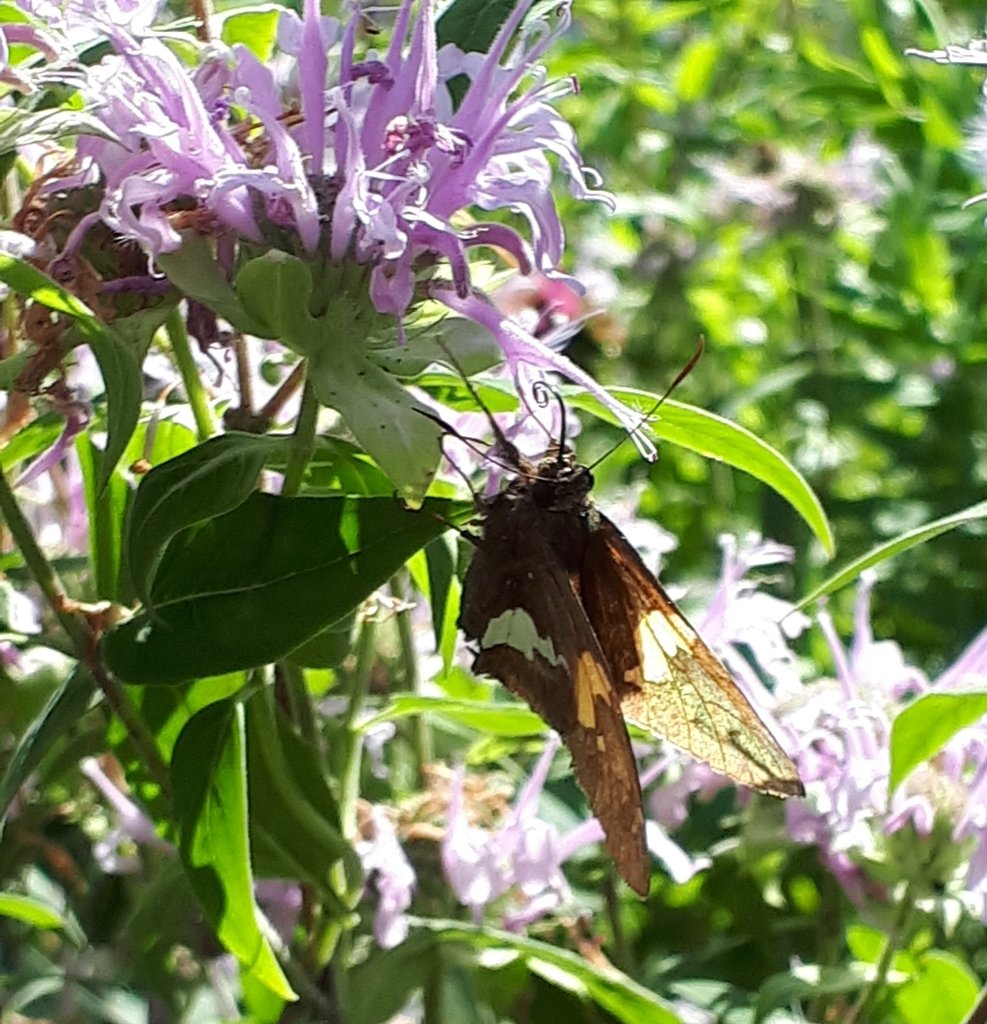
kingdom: Animalia
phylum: Arthropoda
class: Insecta
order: Lepidoptera
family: Hesperiidae
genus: Epargyreus
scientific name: Epargyreus clarus
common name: Silver-spotted Skipper
